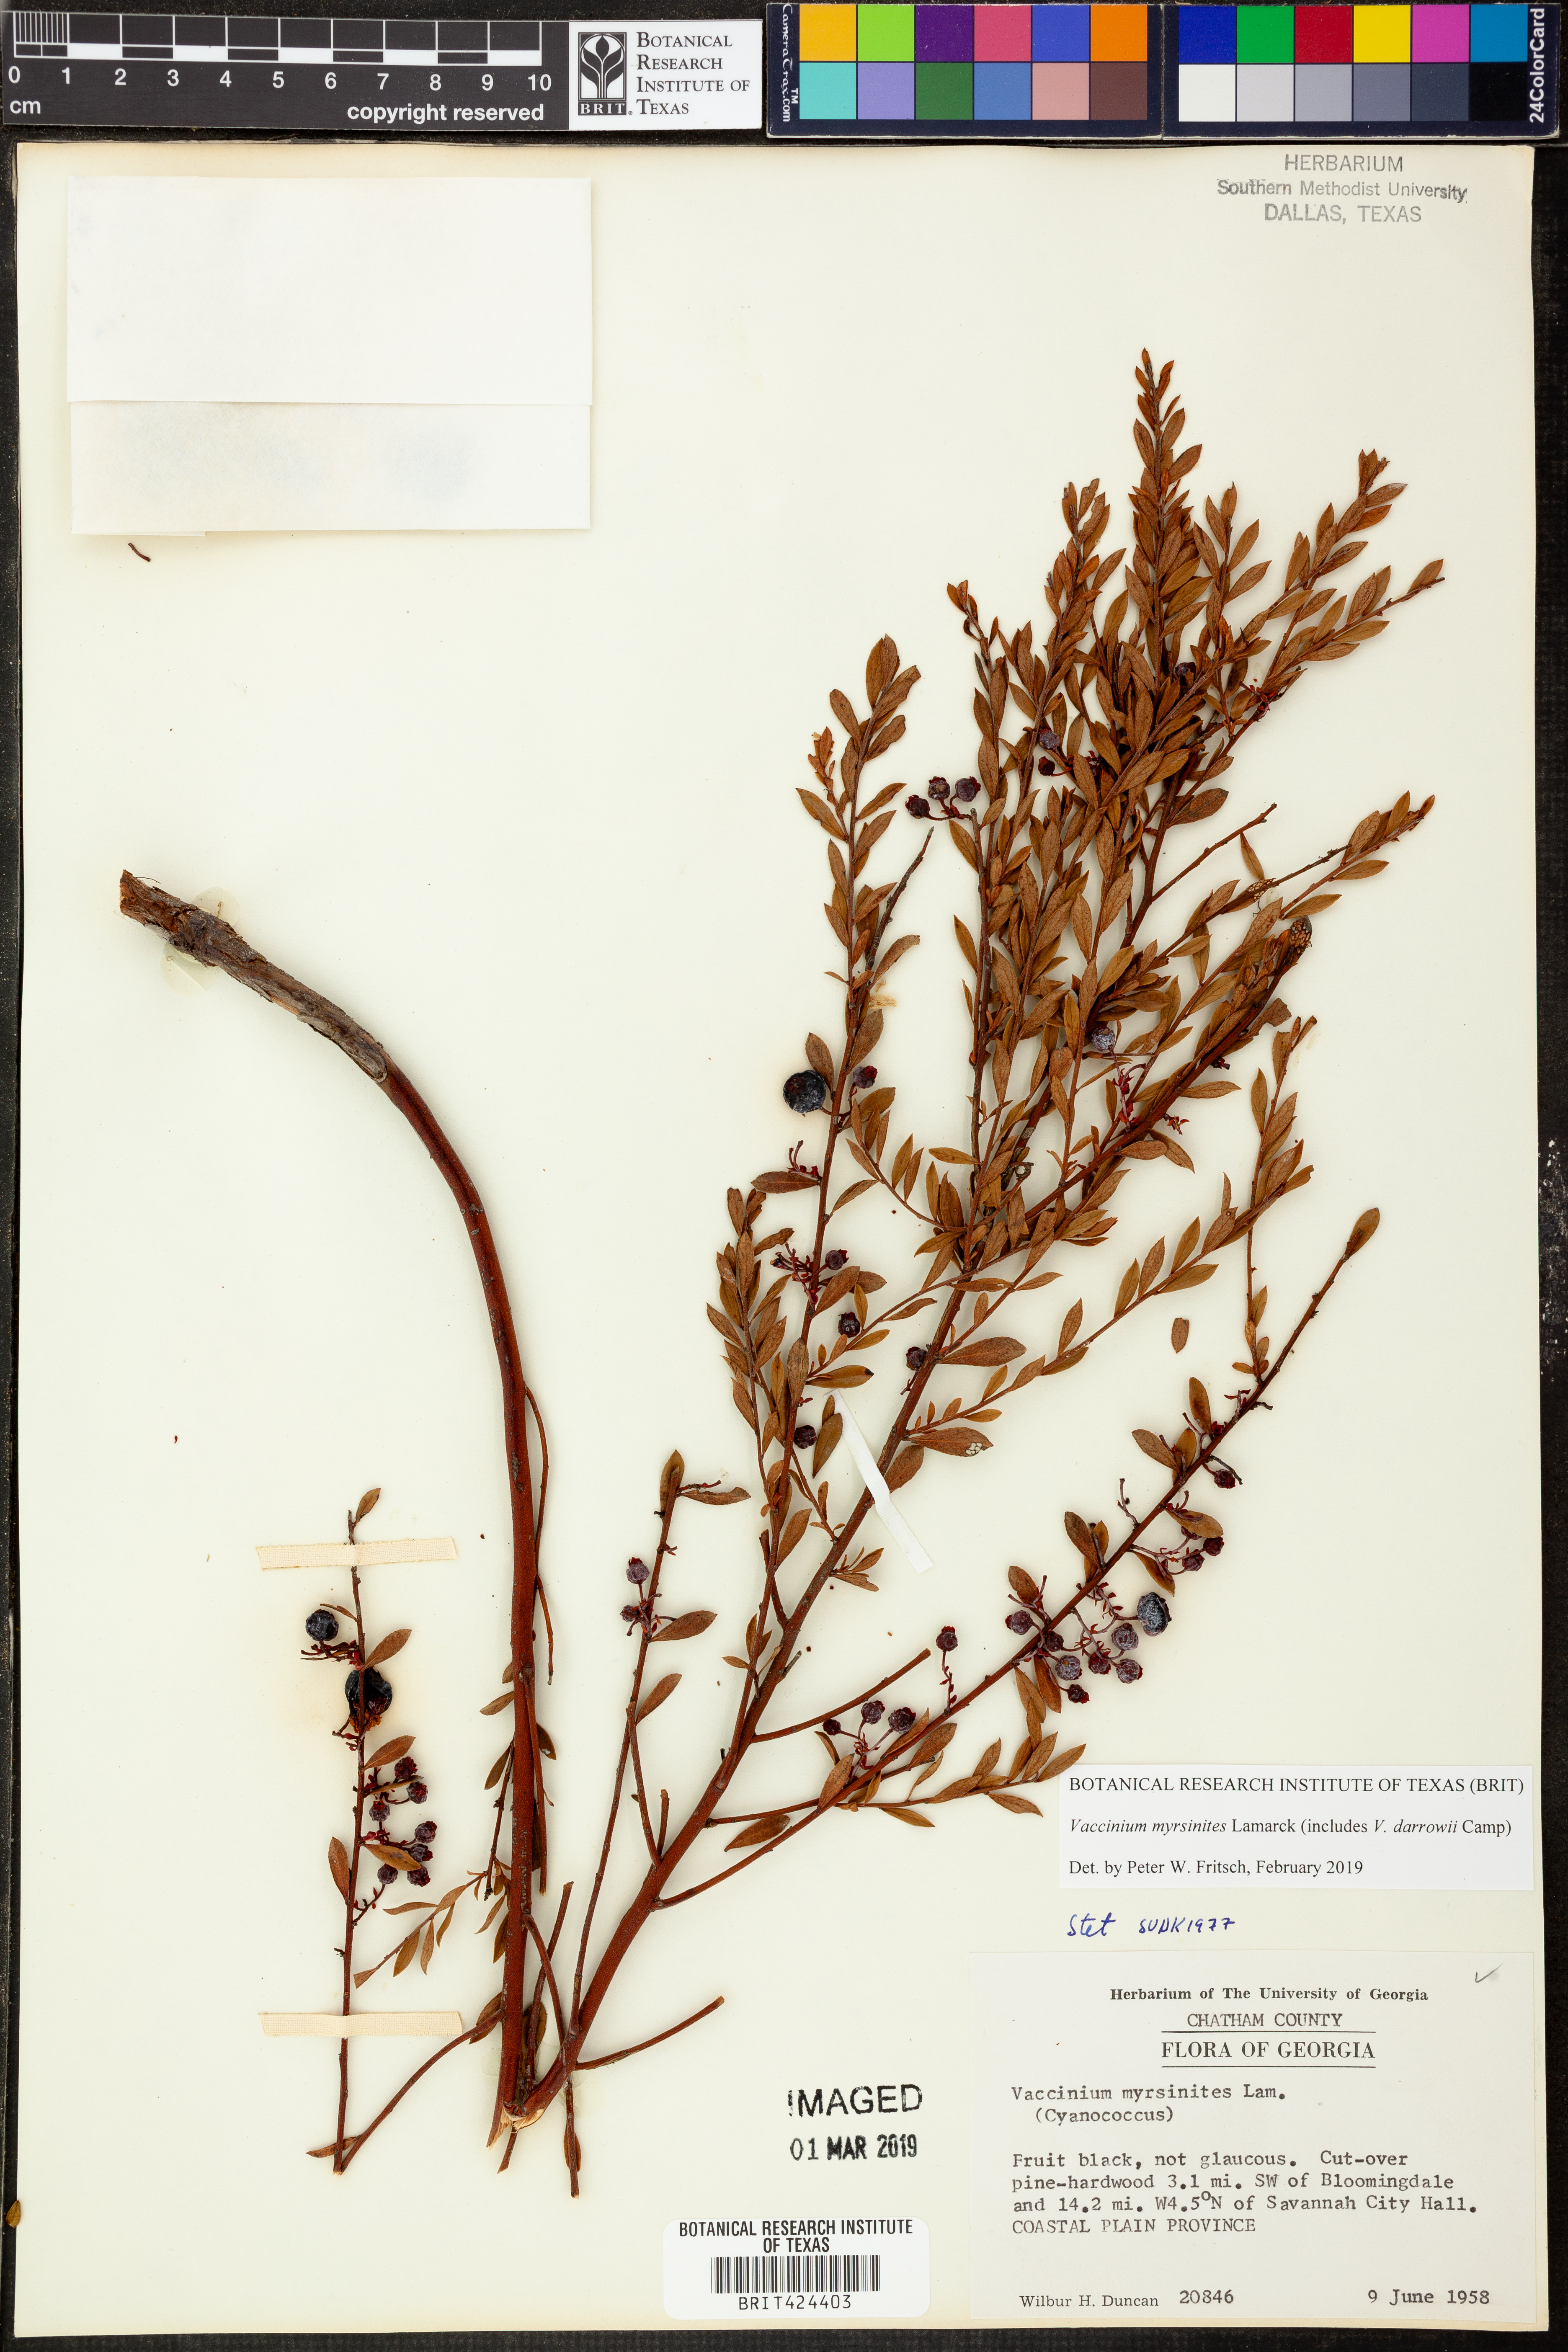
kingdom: Plantae
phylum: Tracheophyta
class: Magnoliopsida
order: Ericales
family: Ericaceae
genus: Vaccinium
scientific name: Vaccinium myrsinites
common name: Evergreen blueberry
